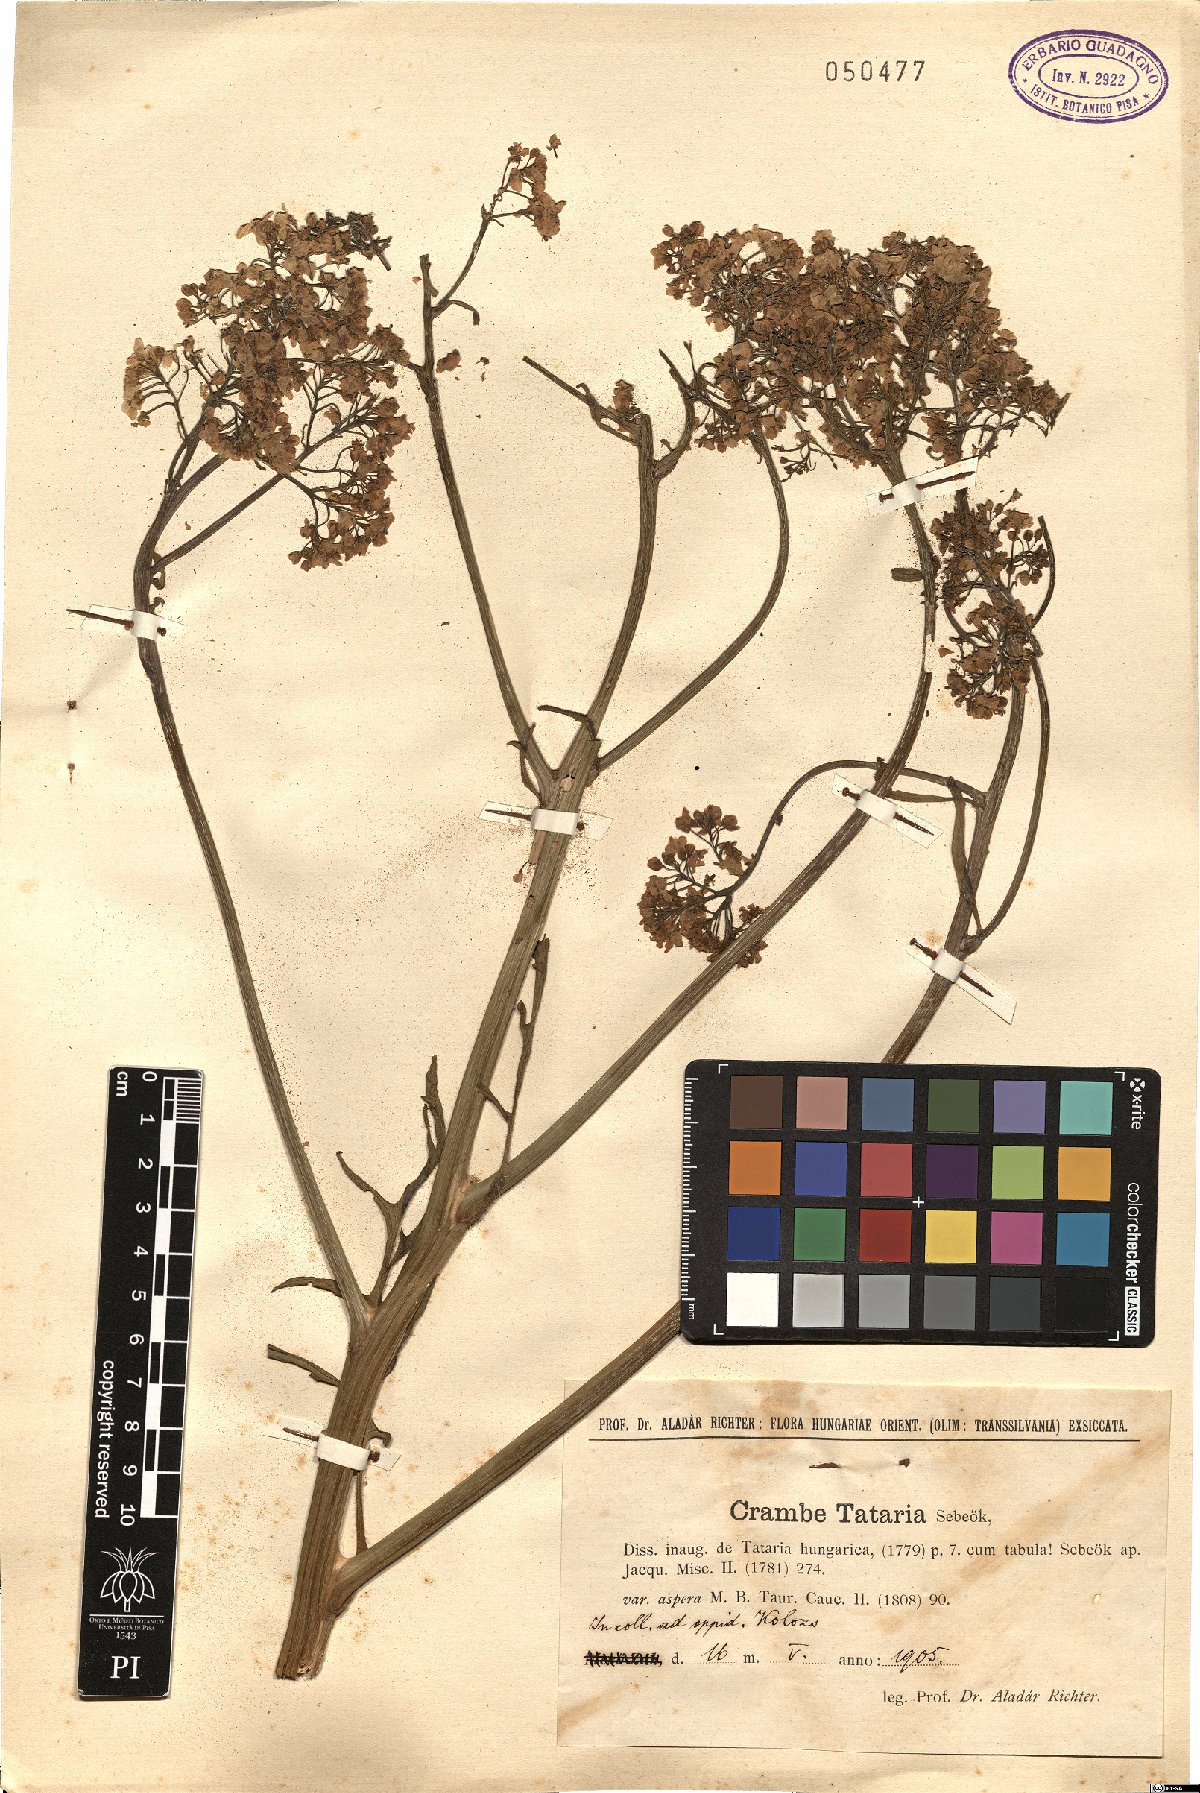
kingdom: Plantae
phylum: Tracheophyta
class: Magnoliopsida
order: Brassicales
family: Brassicaceae
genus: Crambe
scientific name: Crambe tataria
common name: Tartarian breadplant
